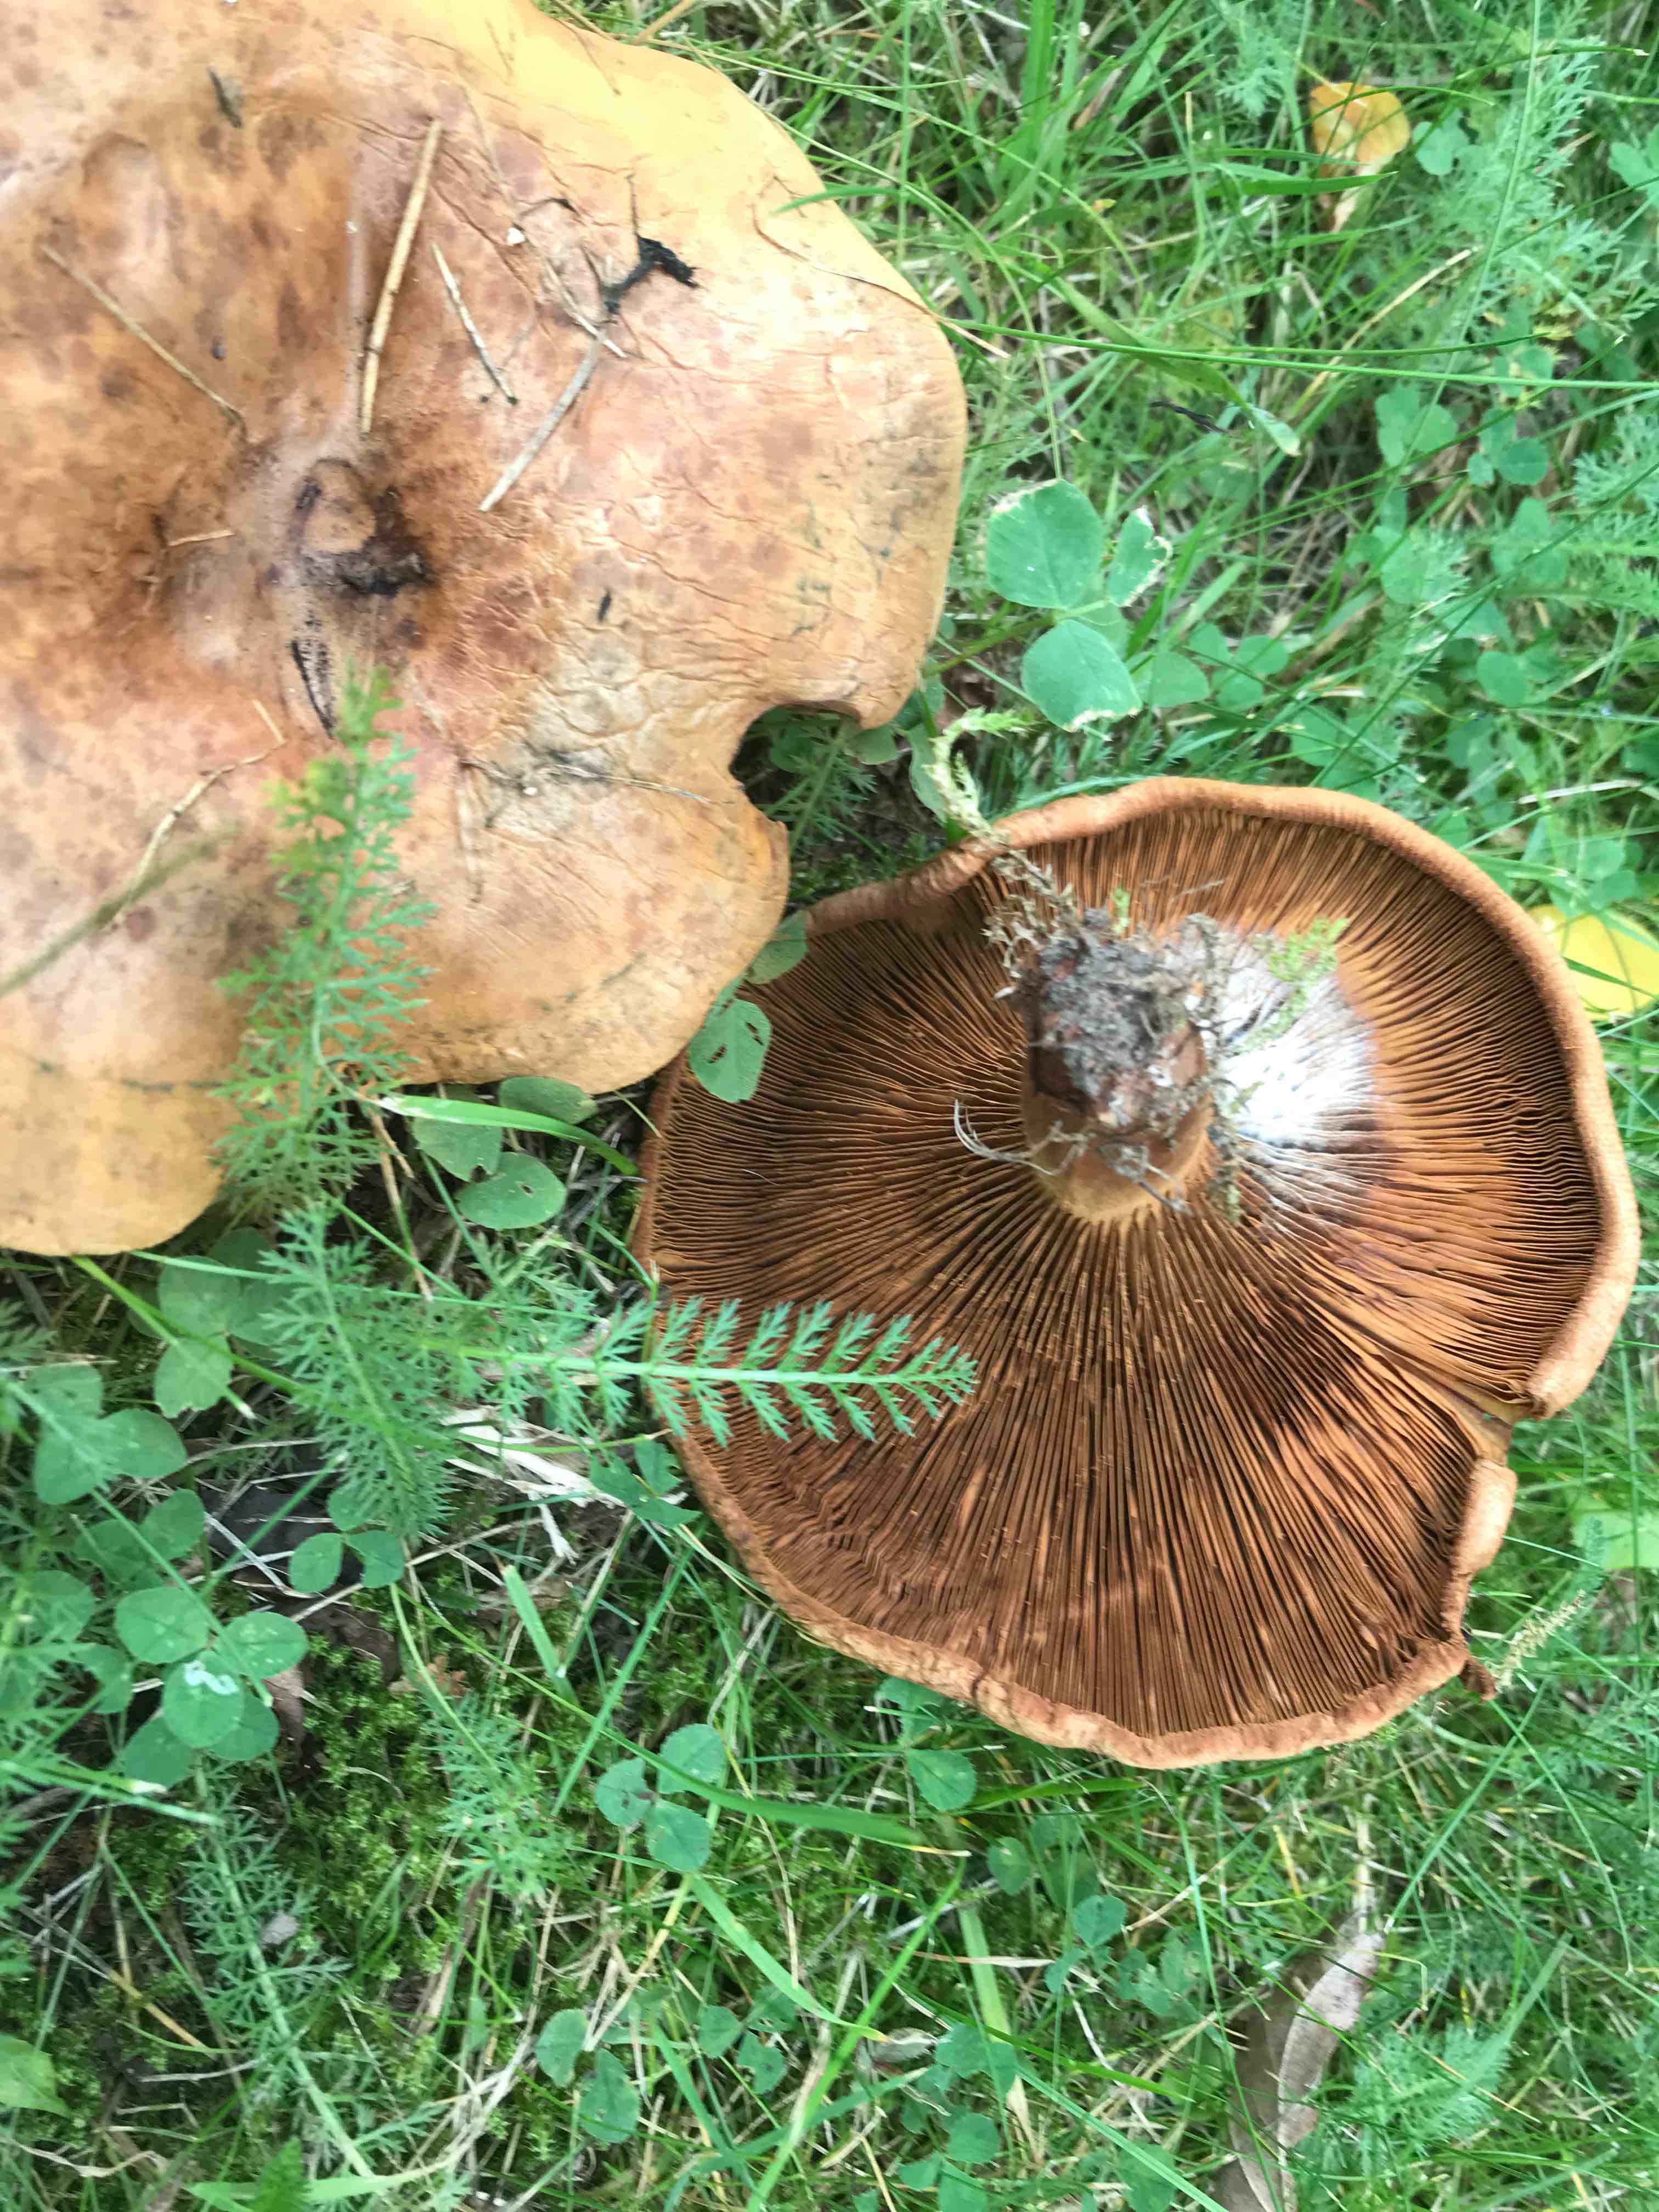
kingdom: Fungi
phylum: Basidiomycota
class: Agaricomycetes
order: Boletales
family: Paxillaceae
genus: Paxillus
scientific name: Paxillus
